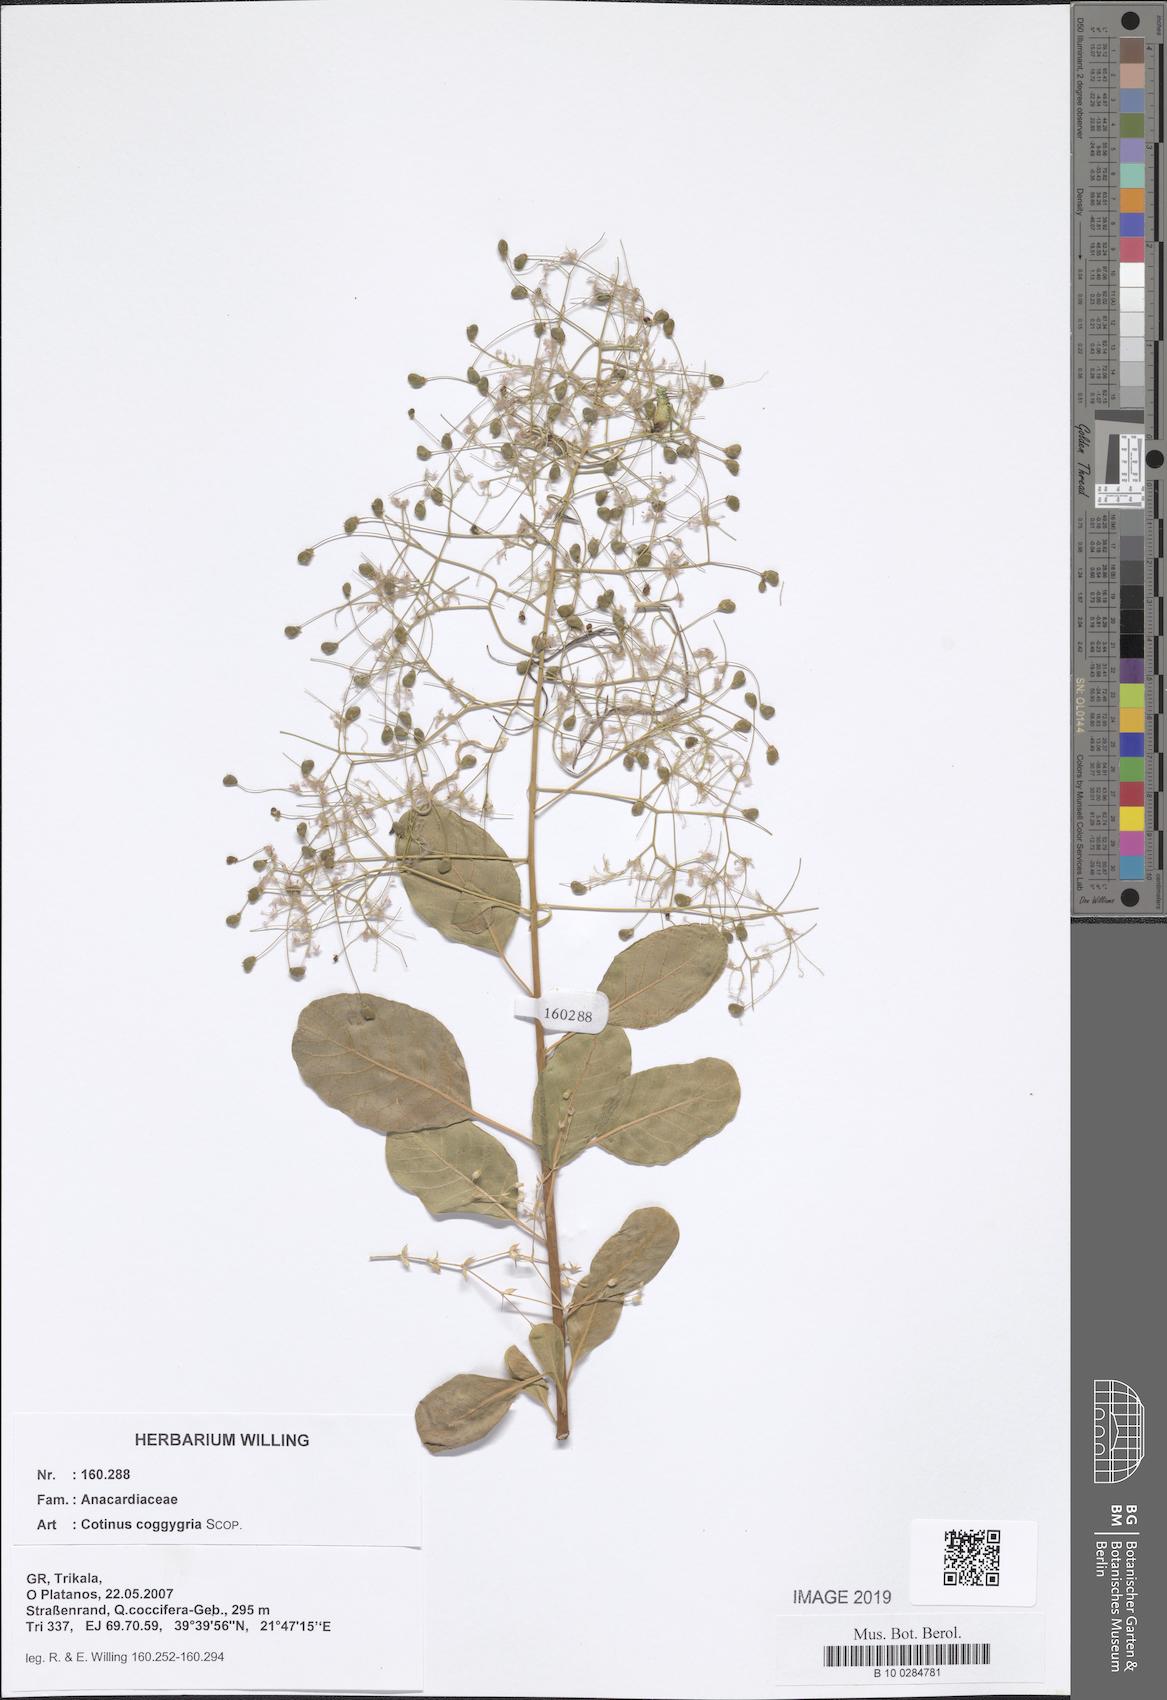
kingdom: Plantae
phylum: Tracheophyta
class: Magnoliopsida
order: Sapindales
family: Anacardiaceae
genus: Cotinus
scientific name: Cotinus coggygria
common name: Smoke-tree
